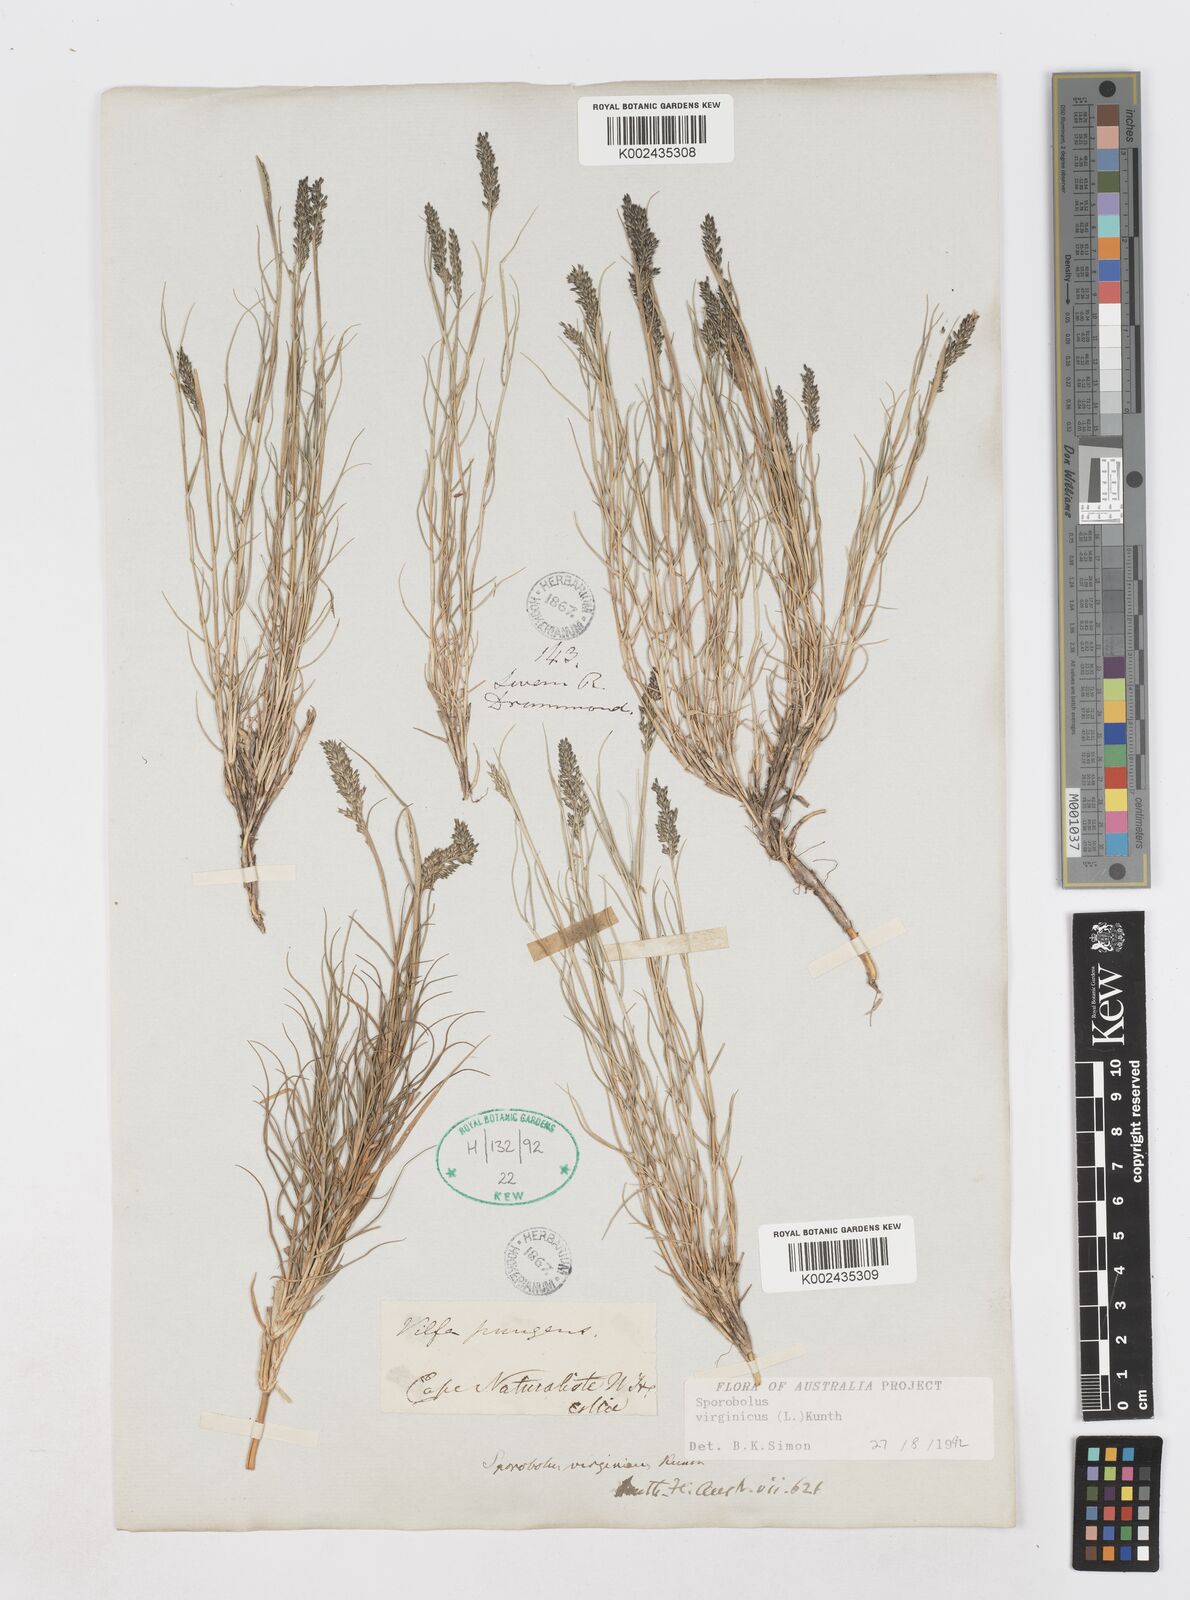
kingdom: Plantae
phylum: Tracheophyta
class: Liliopsida
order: Poales
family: Poaceae
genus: Sporobolus
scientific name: Sporobolus virginicus
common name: Beach dropseed
